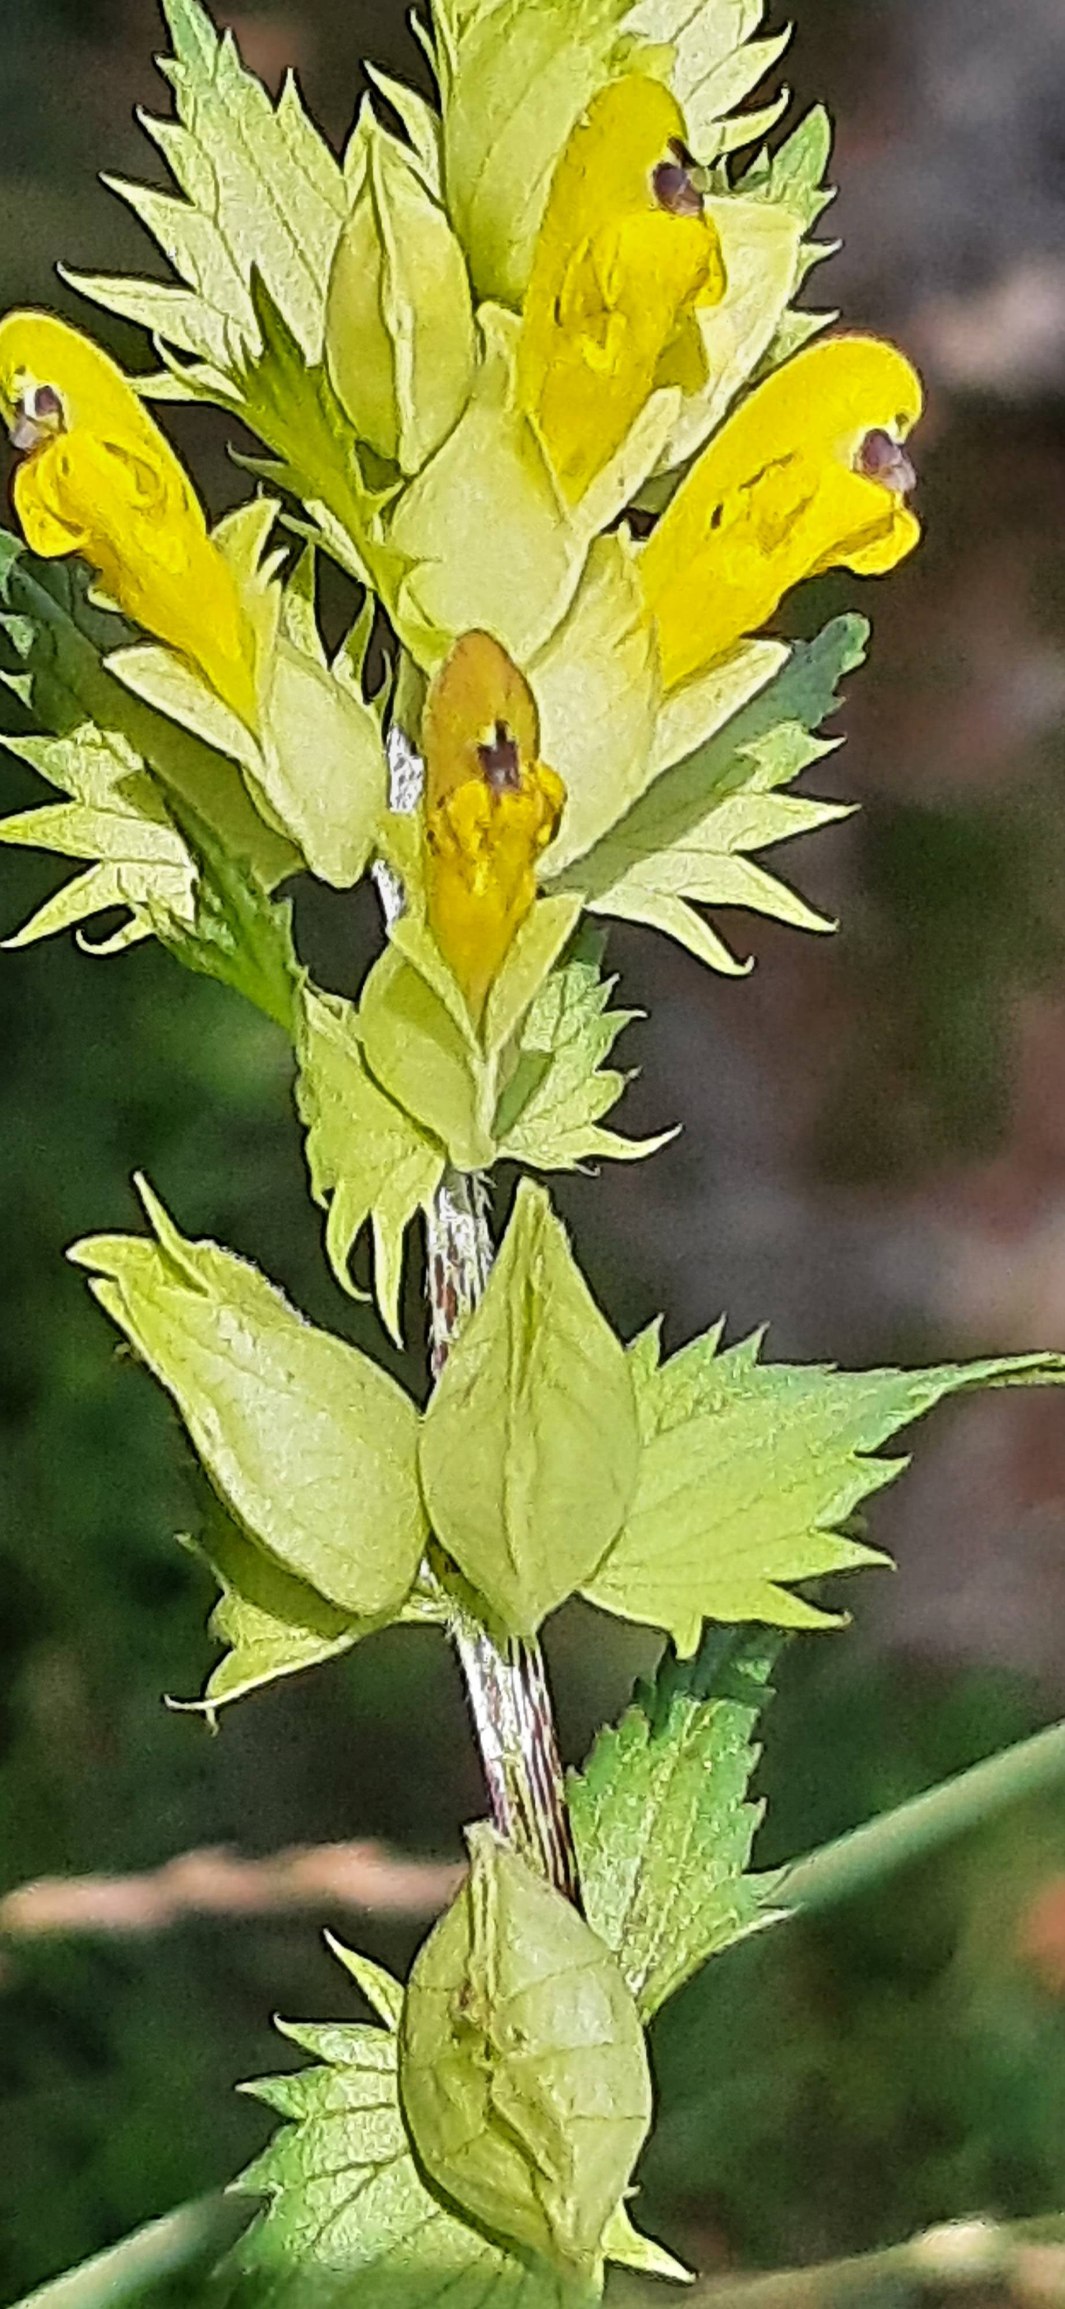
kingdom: Plantae
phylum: Tracheophyta
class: Magnoliopsida
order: Lamiales
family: Orobanchaceae
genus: Rhinanthus
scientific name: Rhinanthus
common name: Stor skjaller
